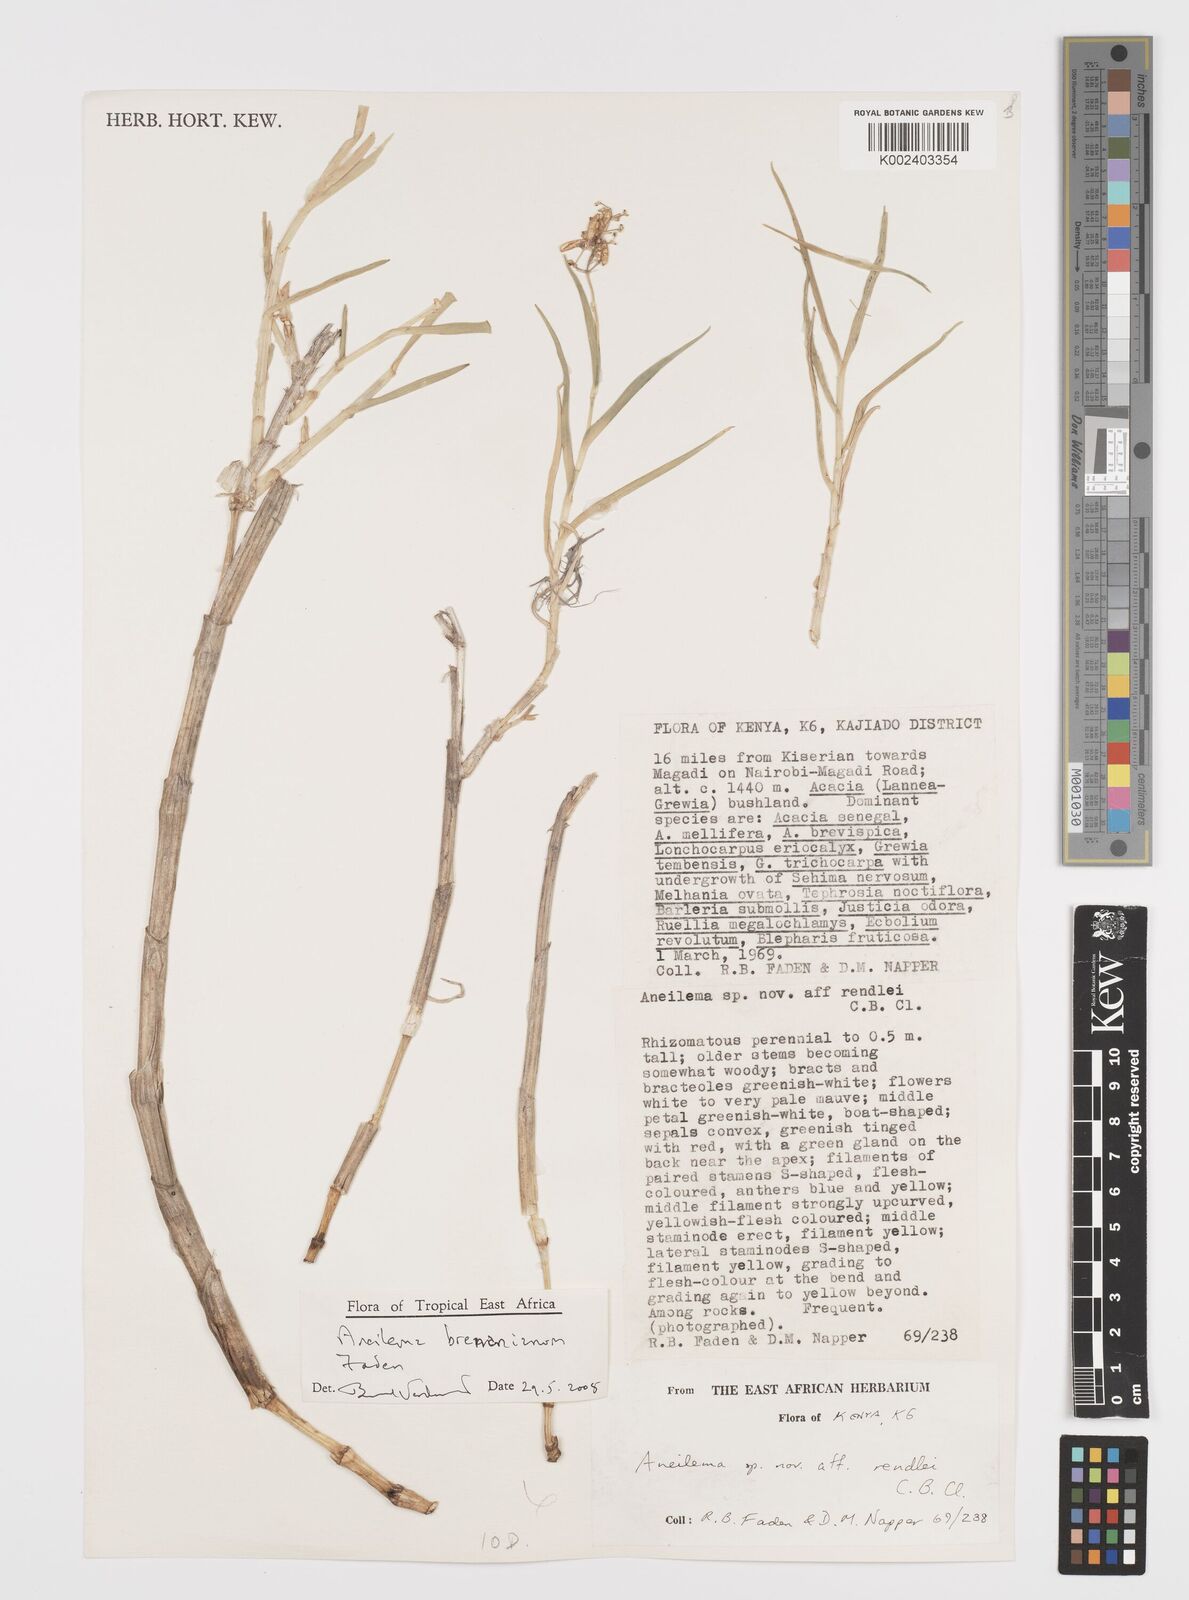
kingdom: Plantae
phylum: Tracheophyta
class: Liliopsida
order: Commelinales
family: Commelinaceae
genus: Aneilema
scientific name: Aneilema brenanianum
